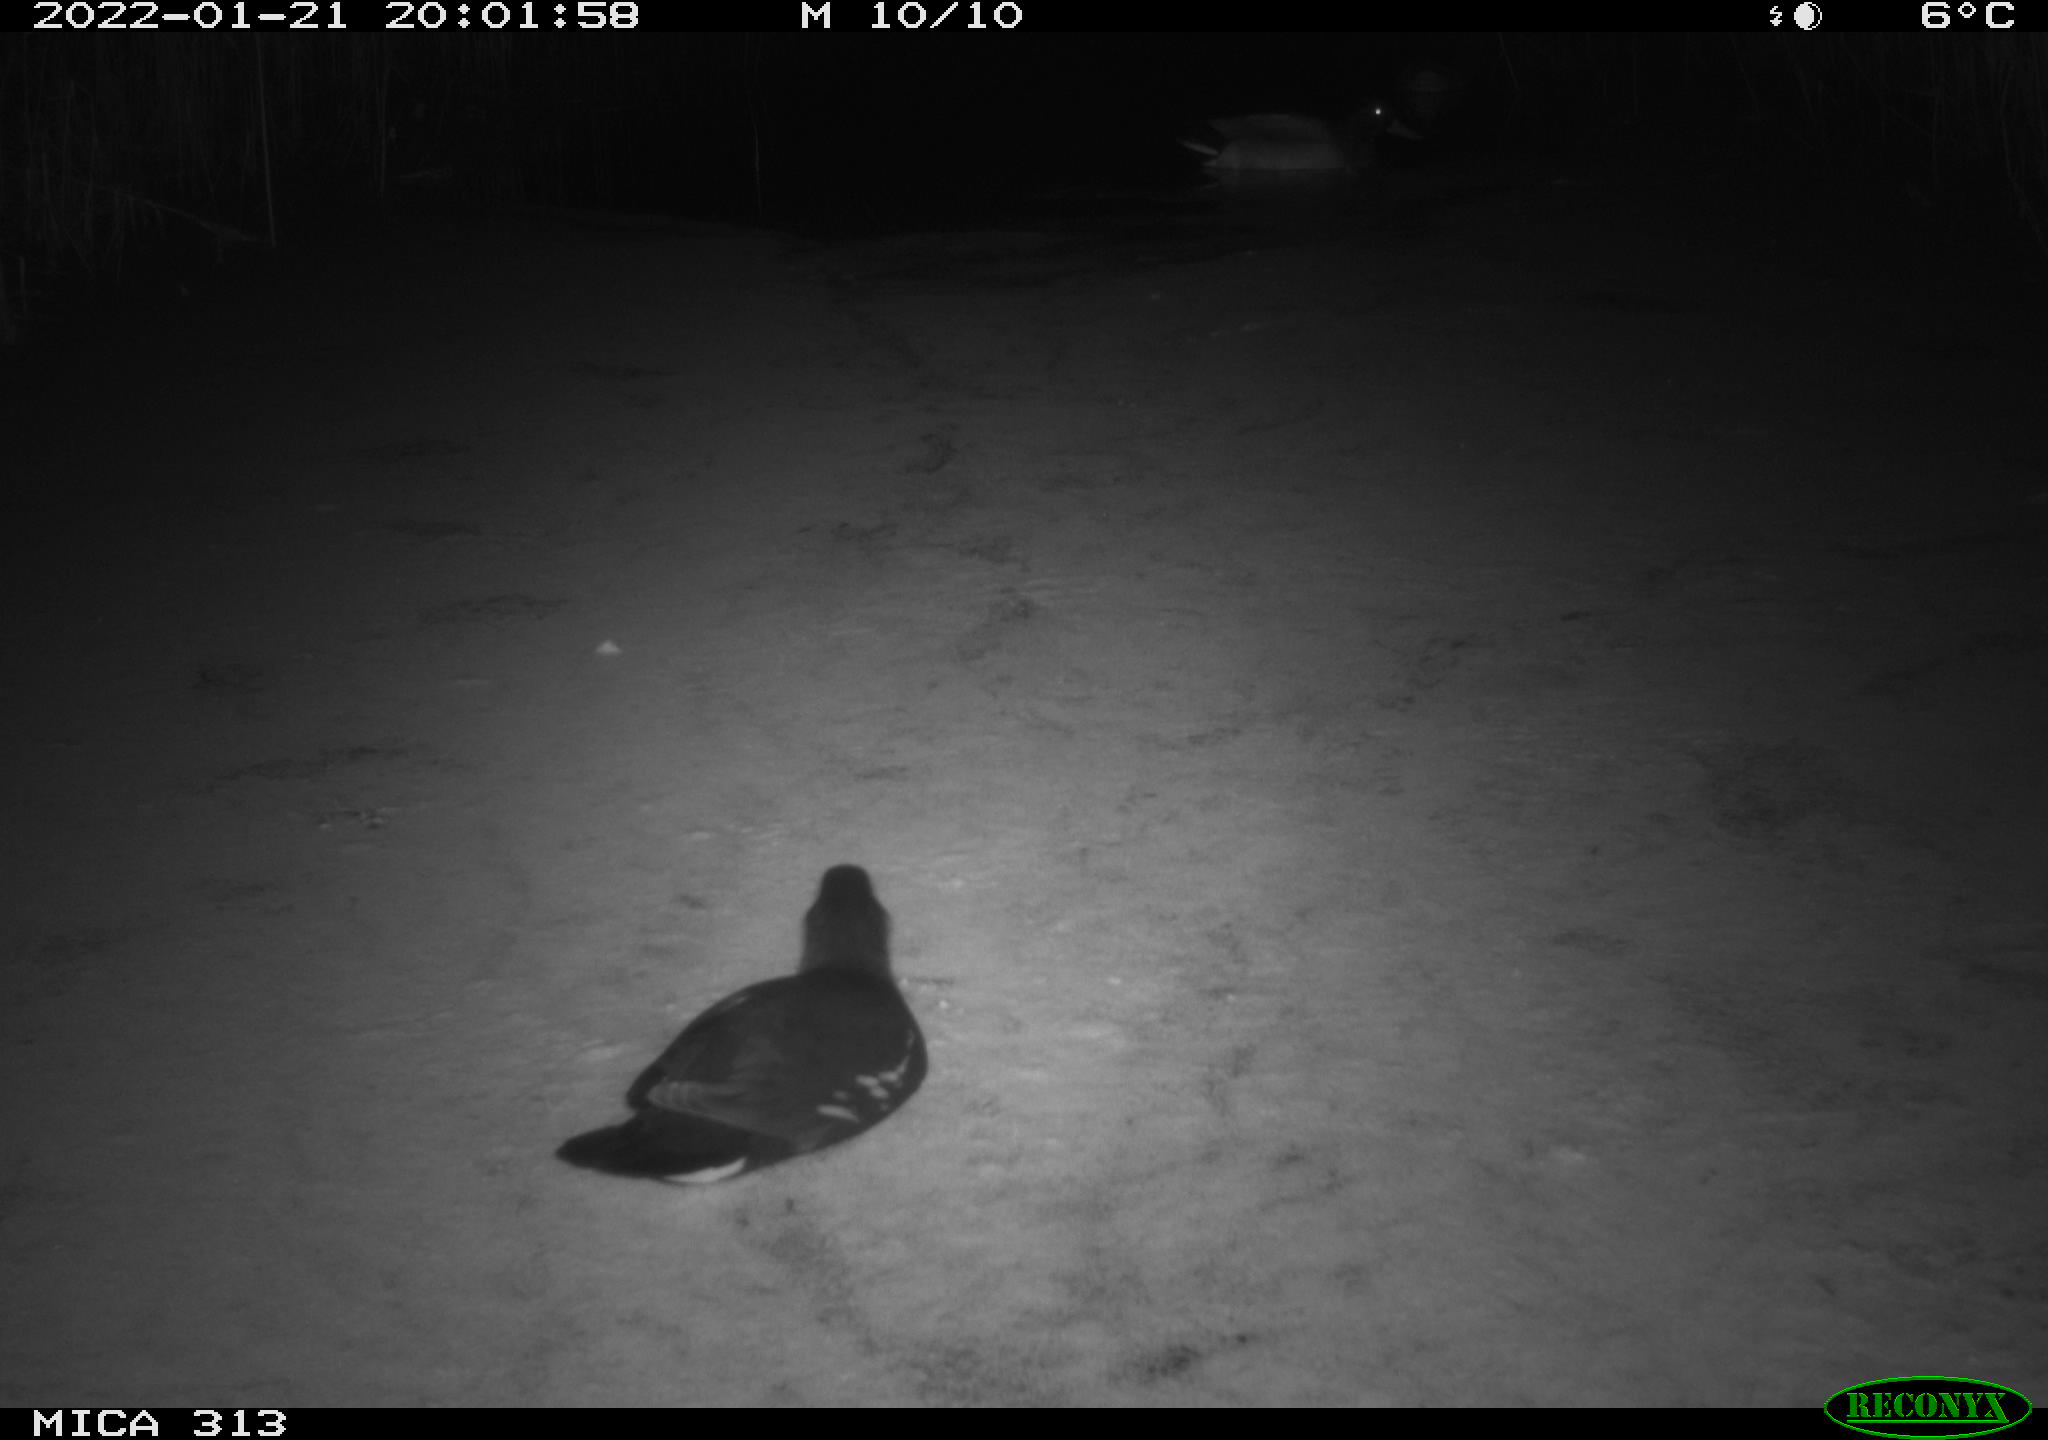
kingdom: Animalia
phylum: Chordata
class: Aves
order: Gruiformes
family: Rallidae
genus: Gallinula
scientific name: Gallinula chloropus
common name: Common moorhen
